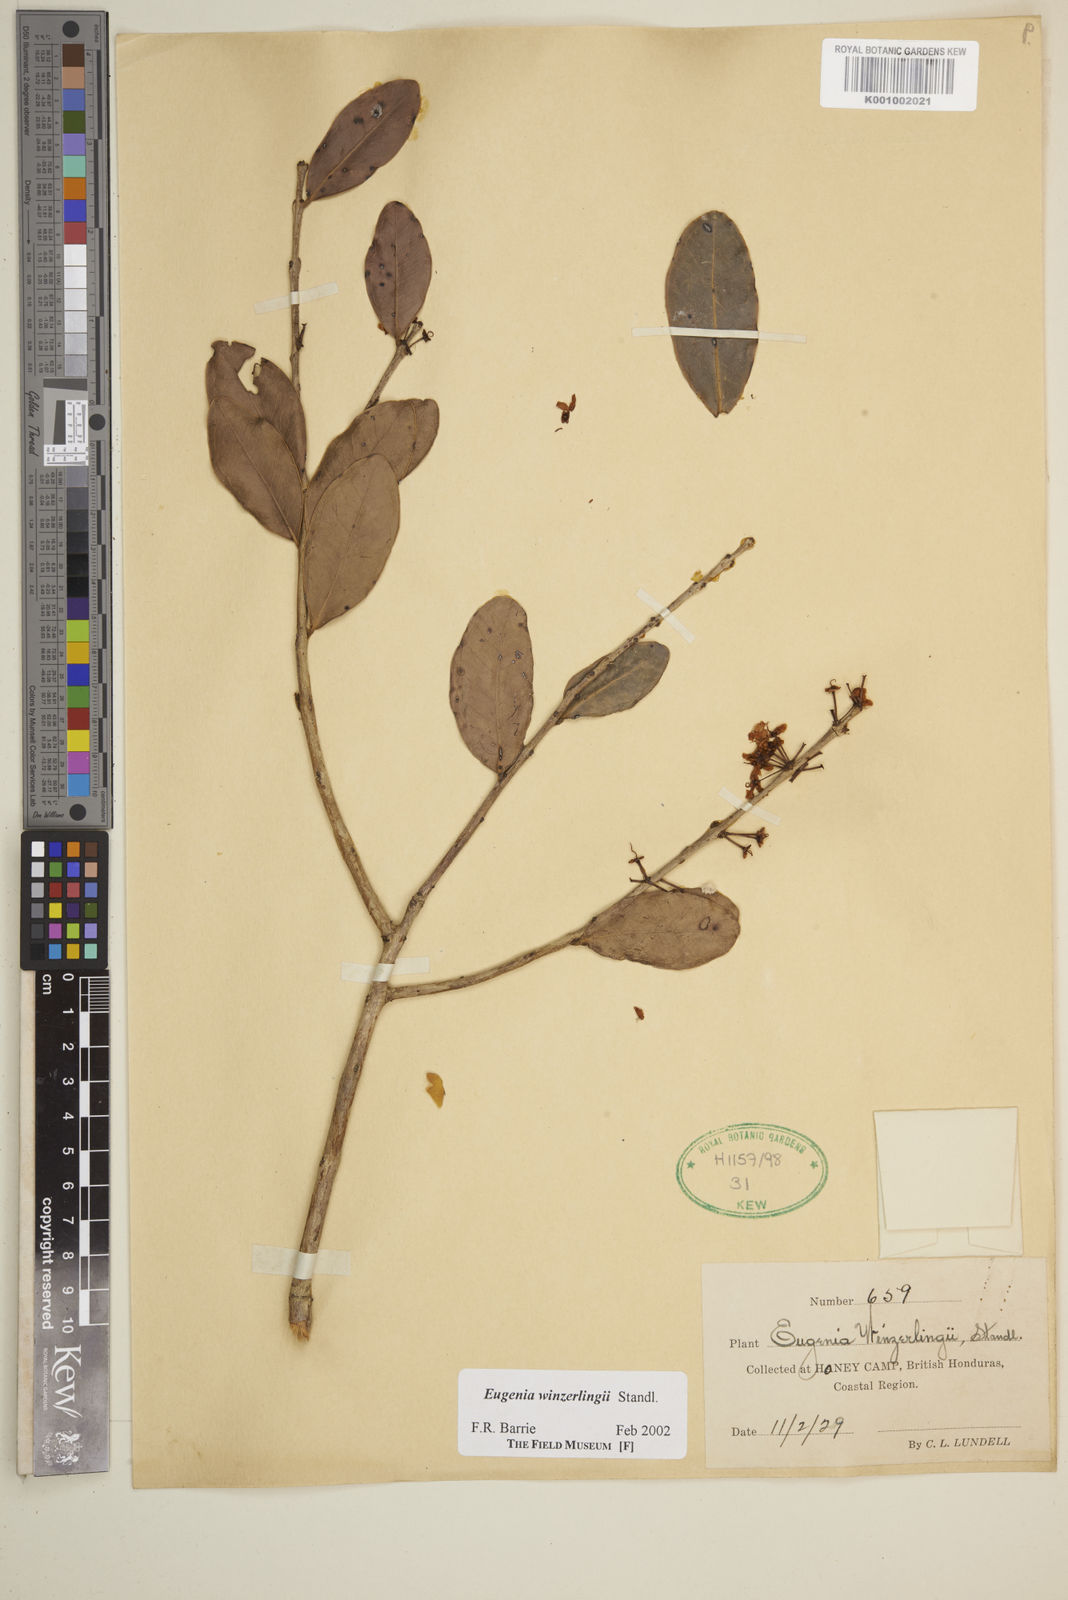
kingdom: Plantae
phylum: Tracheophyta
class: Magnoliopsida
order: Myrtales
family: Myrtaceae
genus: Eugenia
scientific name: Eugenia winzerlingii
